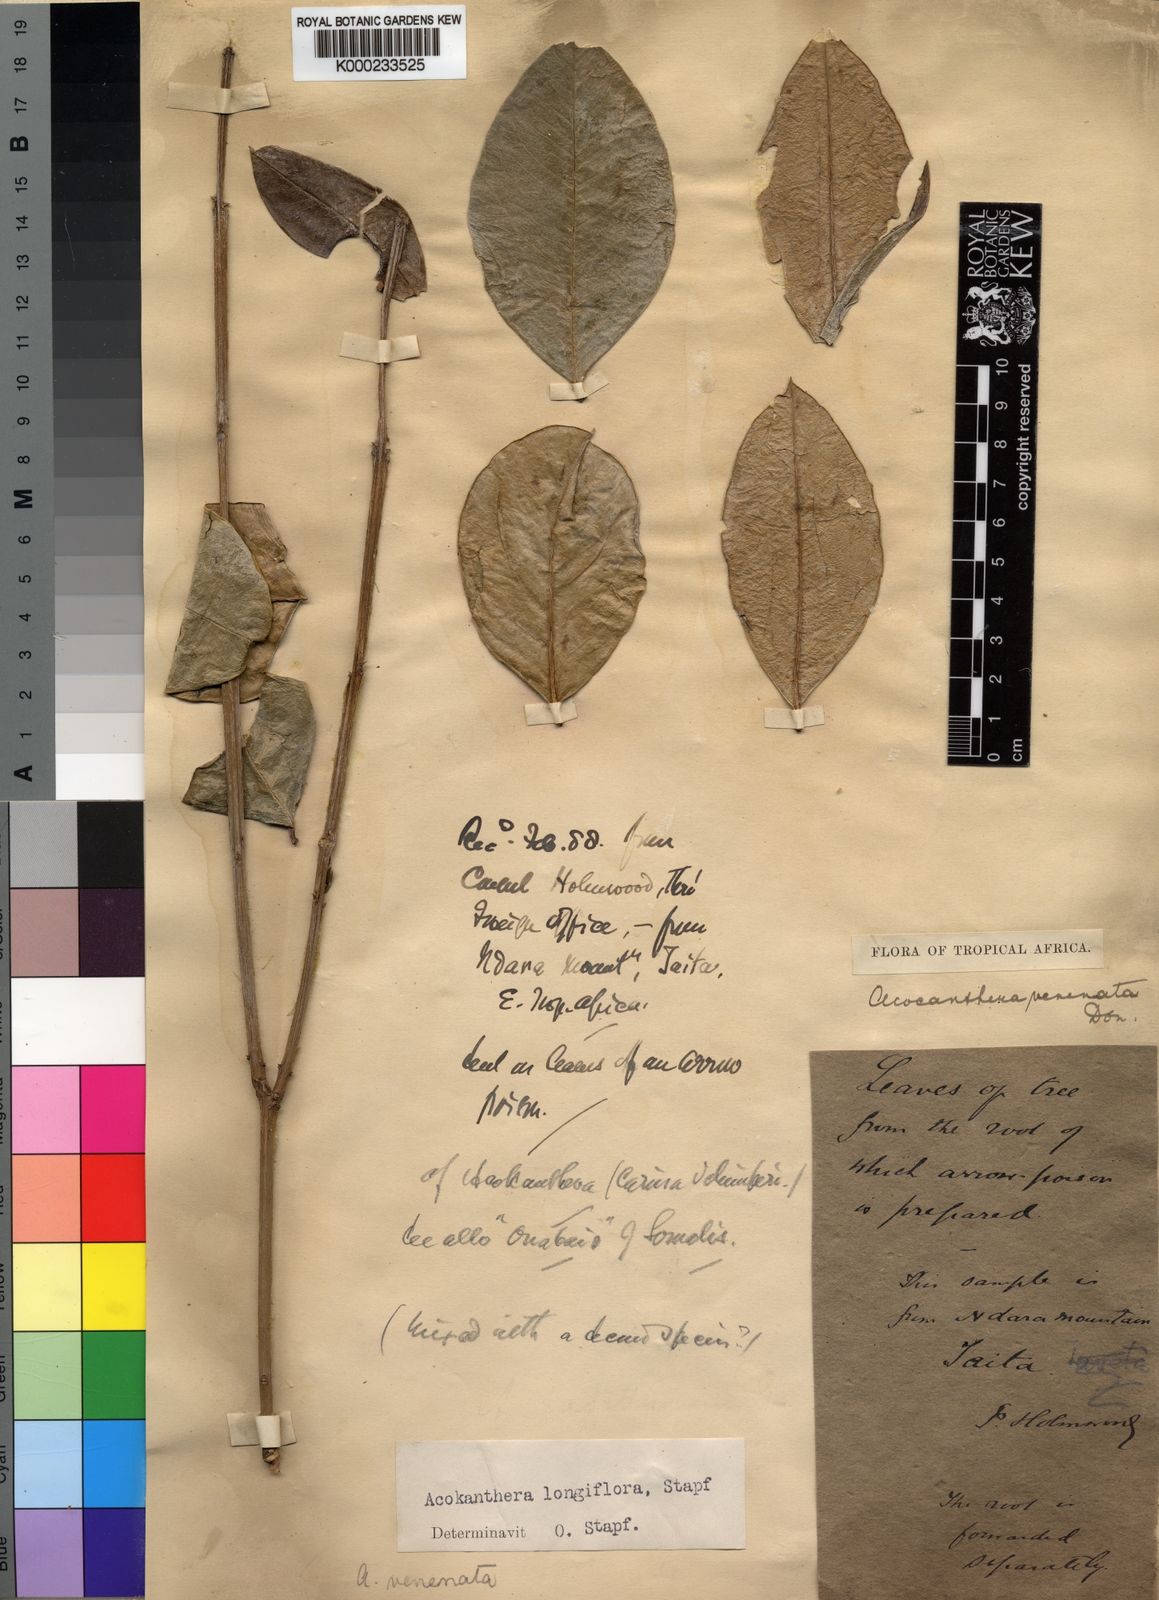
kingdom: Plantae
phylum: Tracheophyta
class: Magnoliopsida
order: Gentianales
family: Apocynaceae
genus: Acokanthera
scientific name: Acokanthera oppositifolia
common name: Bushman's-poison
